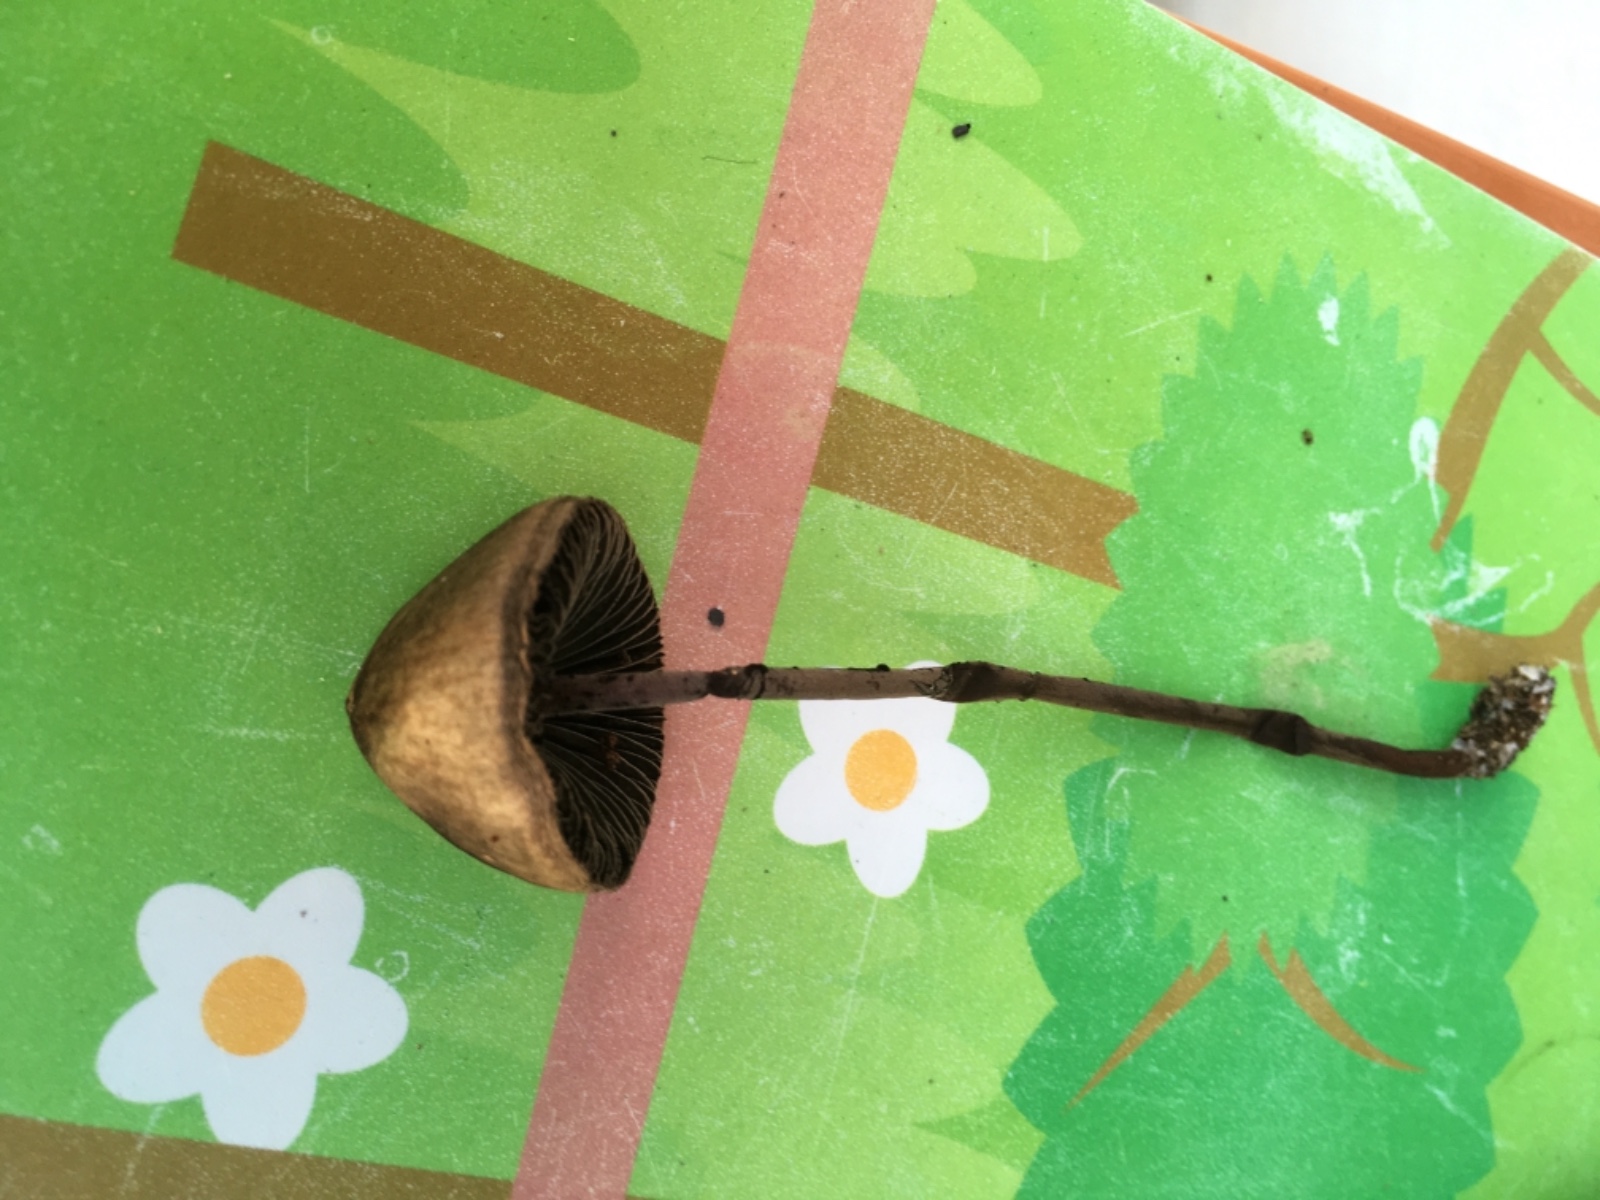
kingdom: Fungi
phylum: Basidiomycota
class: Agaricomycetes
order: Agaricales
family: Bolbitiaceae
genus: Panaeolus
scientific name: Panaeolus acuminatus
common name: høj glanshat
